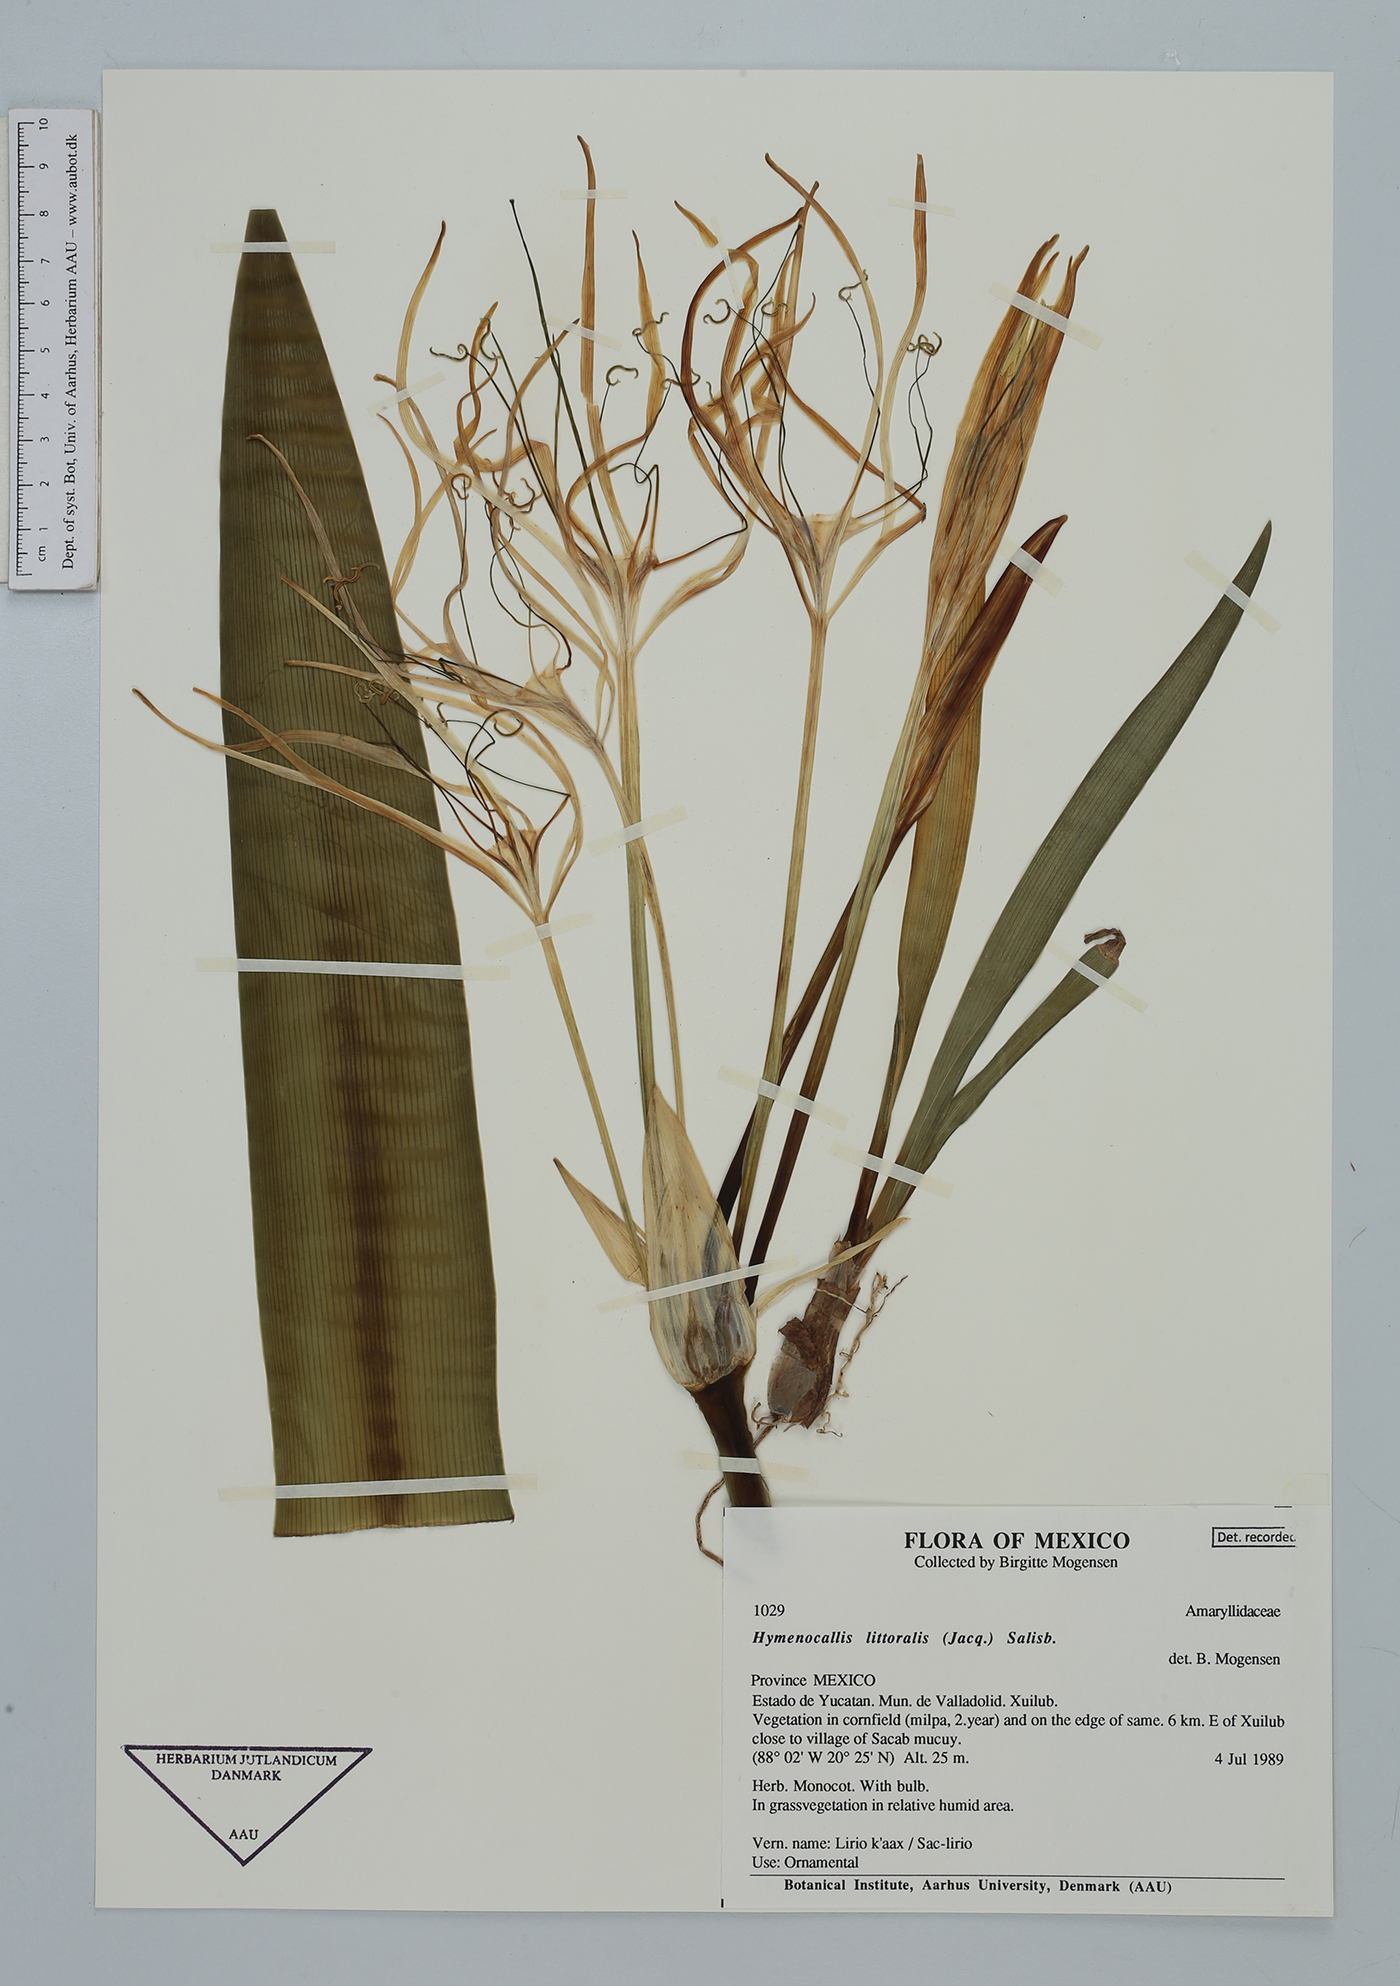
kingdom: Plantae
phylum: Tracheophyta
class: Liliopsida
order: Asparagales
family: Amaryllidaceae
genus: Hymenocallis
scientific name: Hymenocallis littoralis
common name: Beach spiderlily
